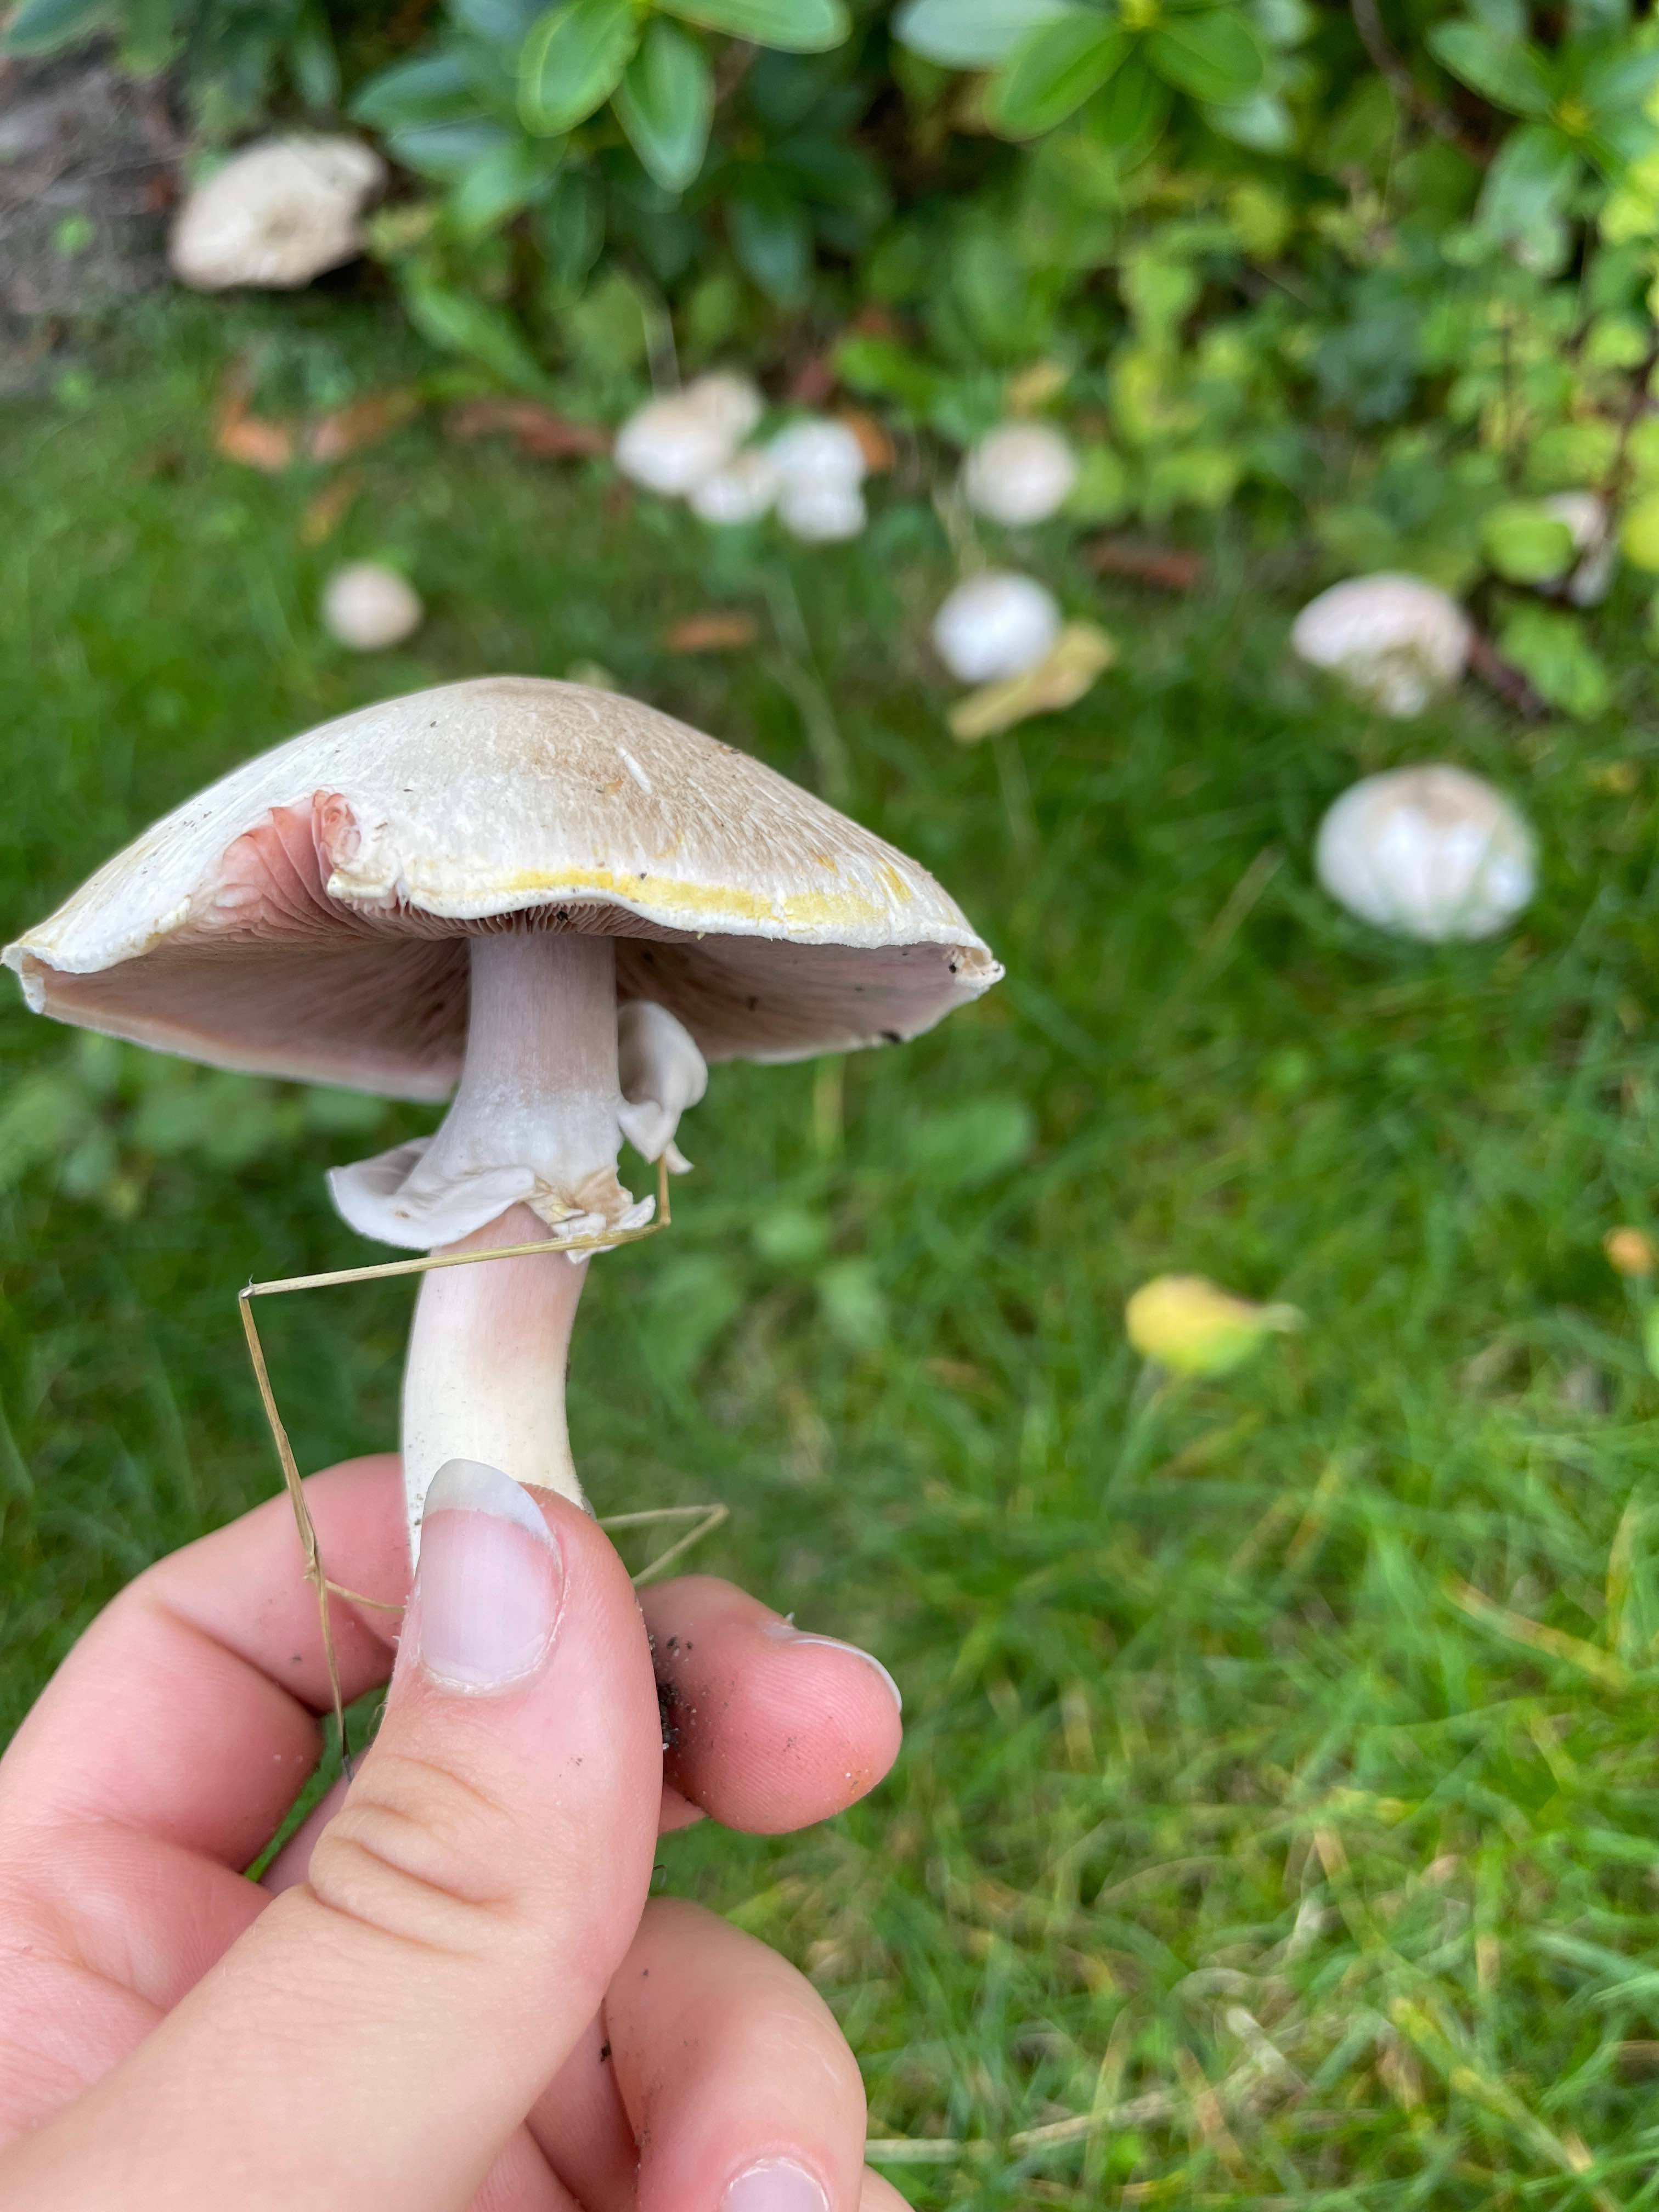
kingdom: Fungi
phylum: Basidiomycota
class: Agaricomycetes
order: Agaricales
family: Agaricaceae
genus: Agaricus
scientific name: Agaricus xanthodermus
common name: karbol-champignon
